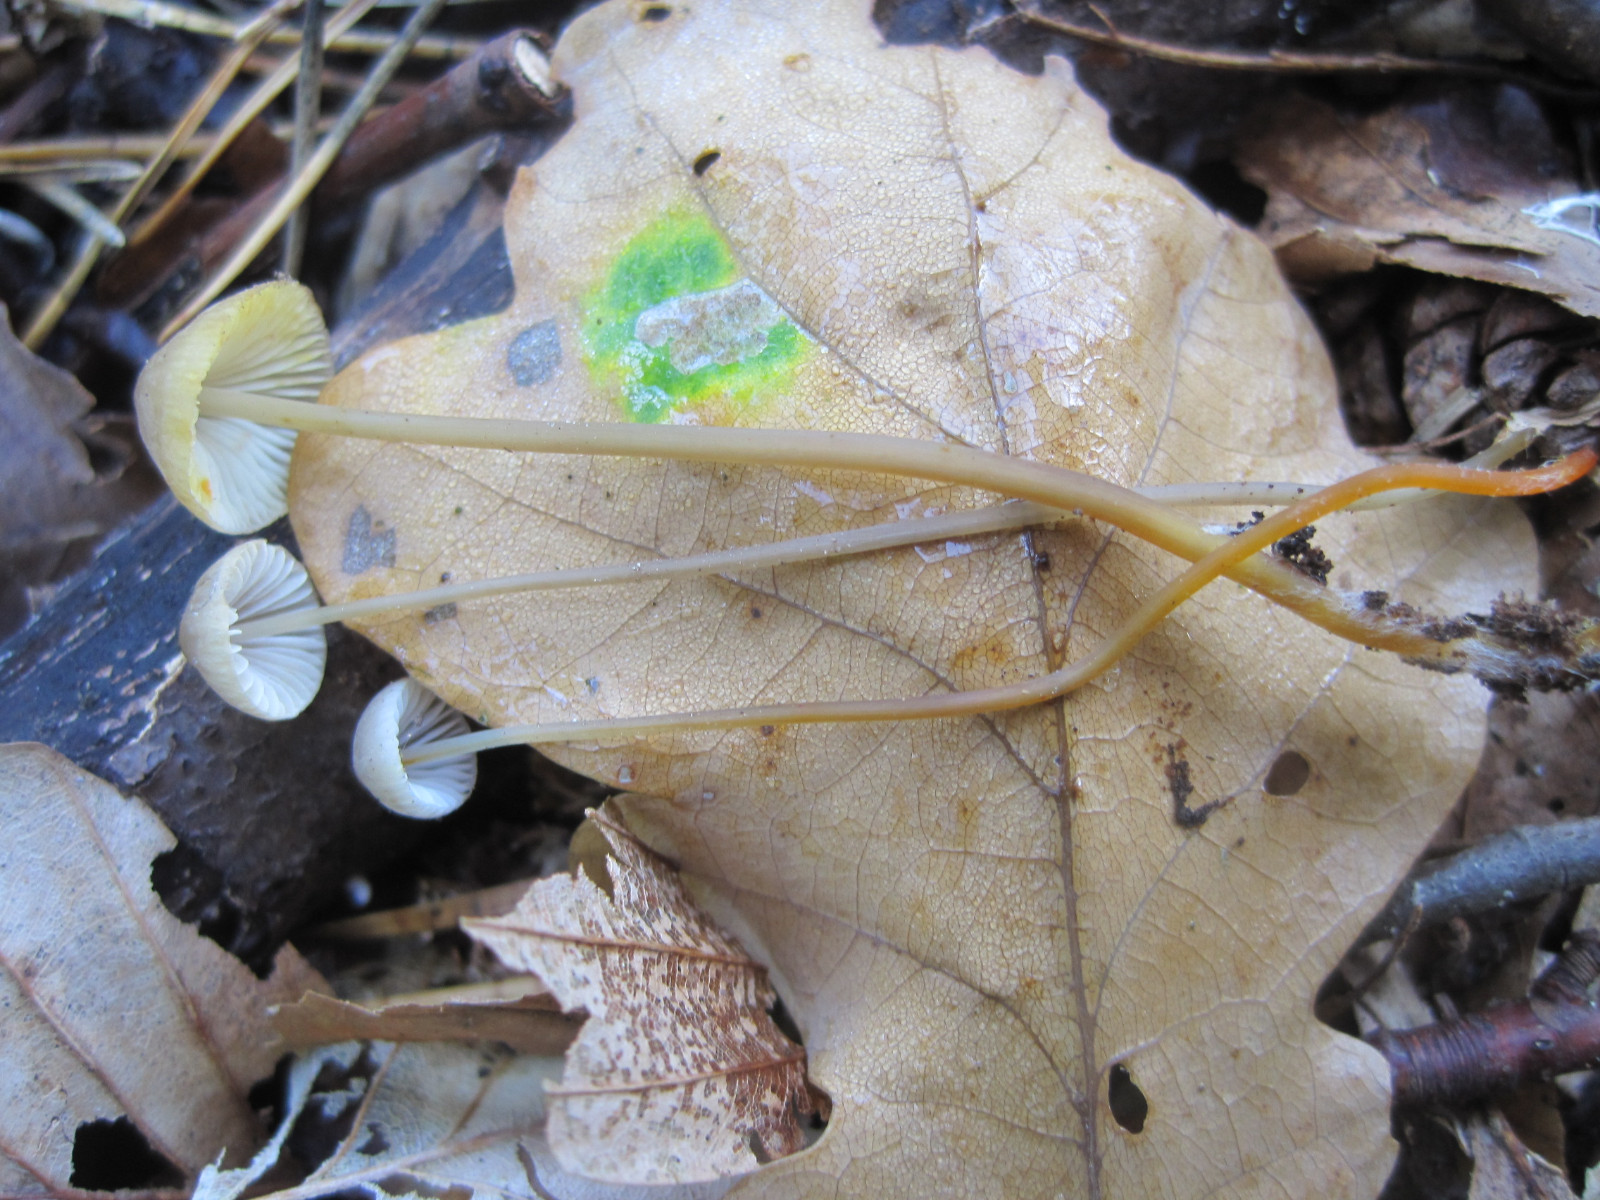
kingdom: Fungi
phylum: Basidiomycota
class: Agaricomycetes
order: Agaricales
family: Mycenaceae
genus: Mycena
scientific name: Mycena crocata
